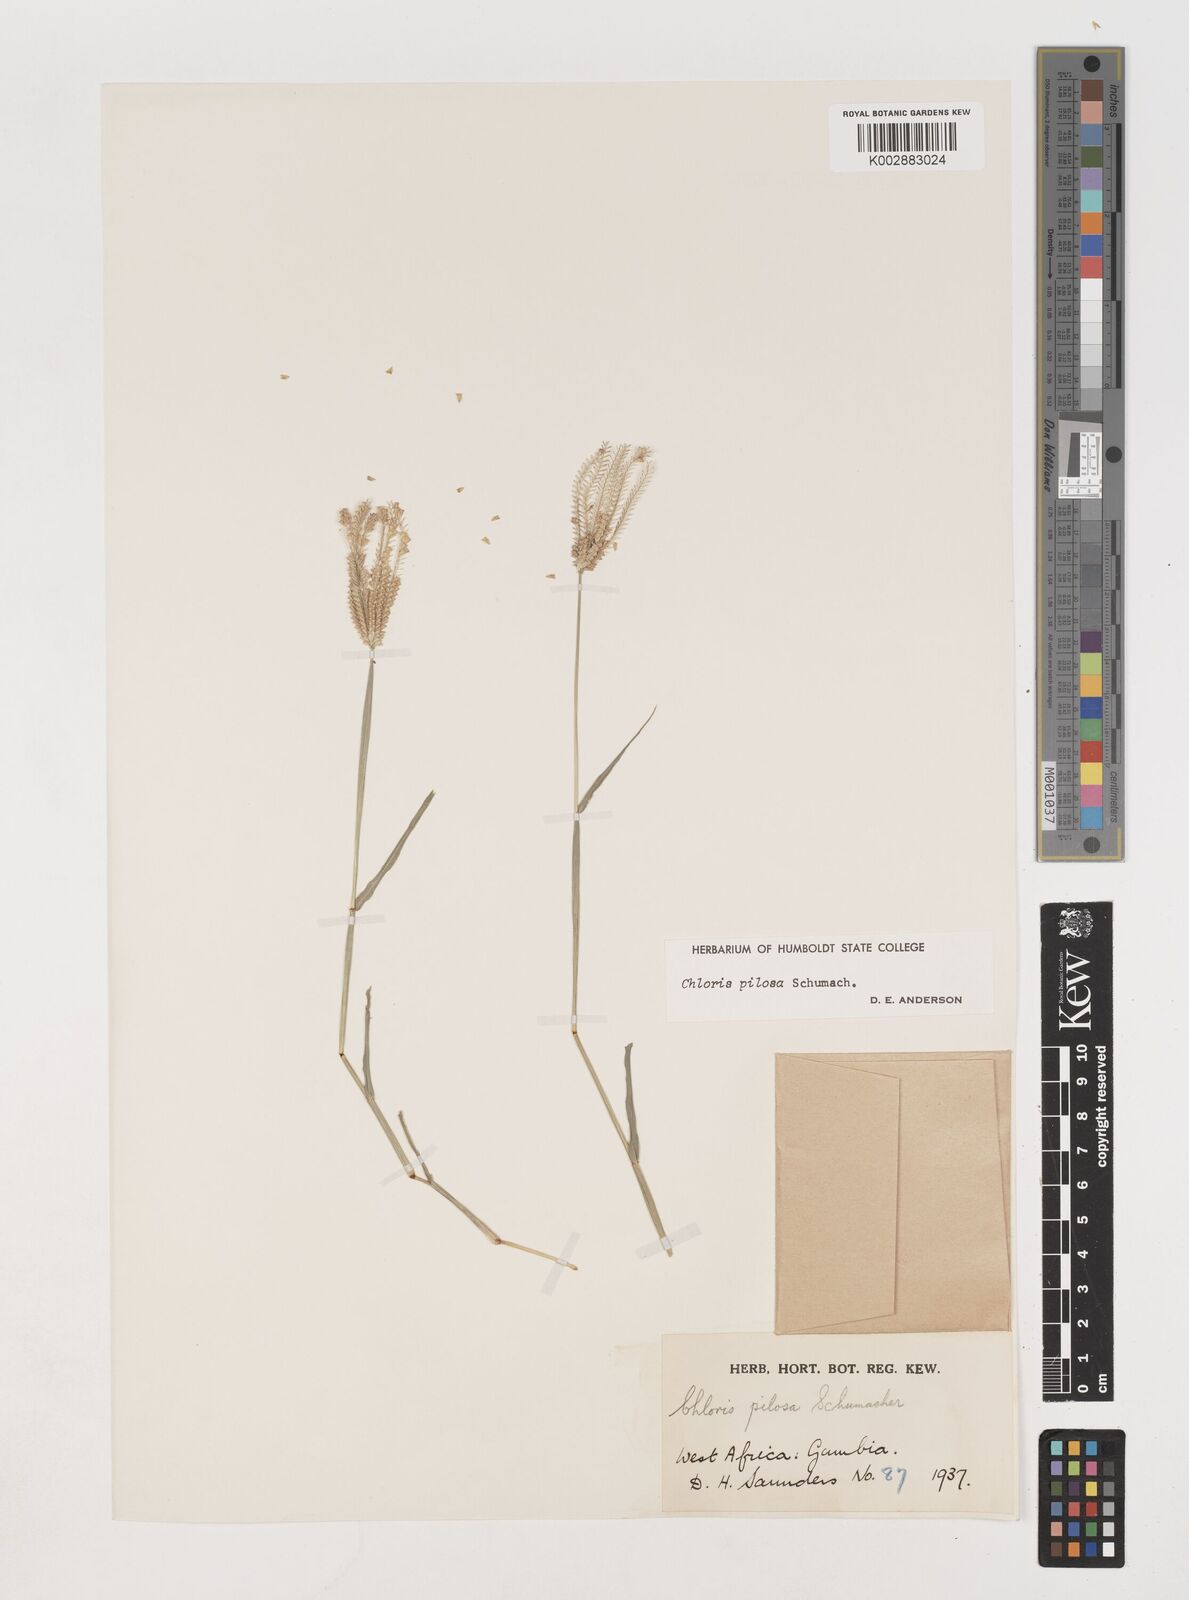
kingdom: Plantae
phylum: Tracheophyta
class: Liliopsida
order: Poales
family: Poaceae
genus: Chloris
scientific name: Chloris pilosa
